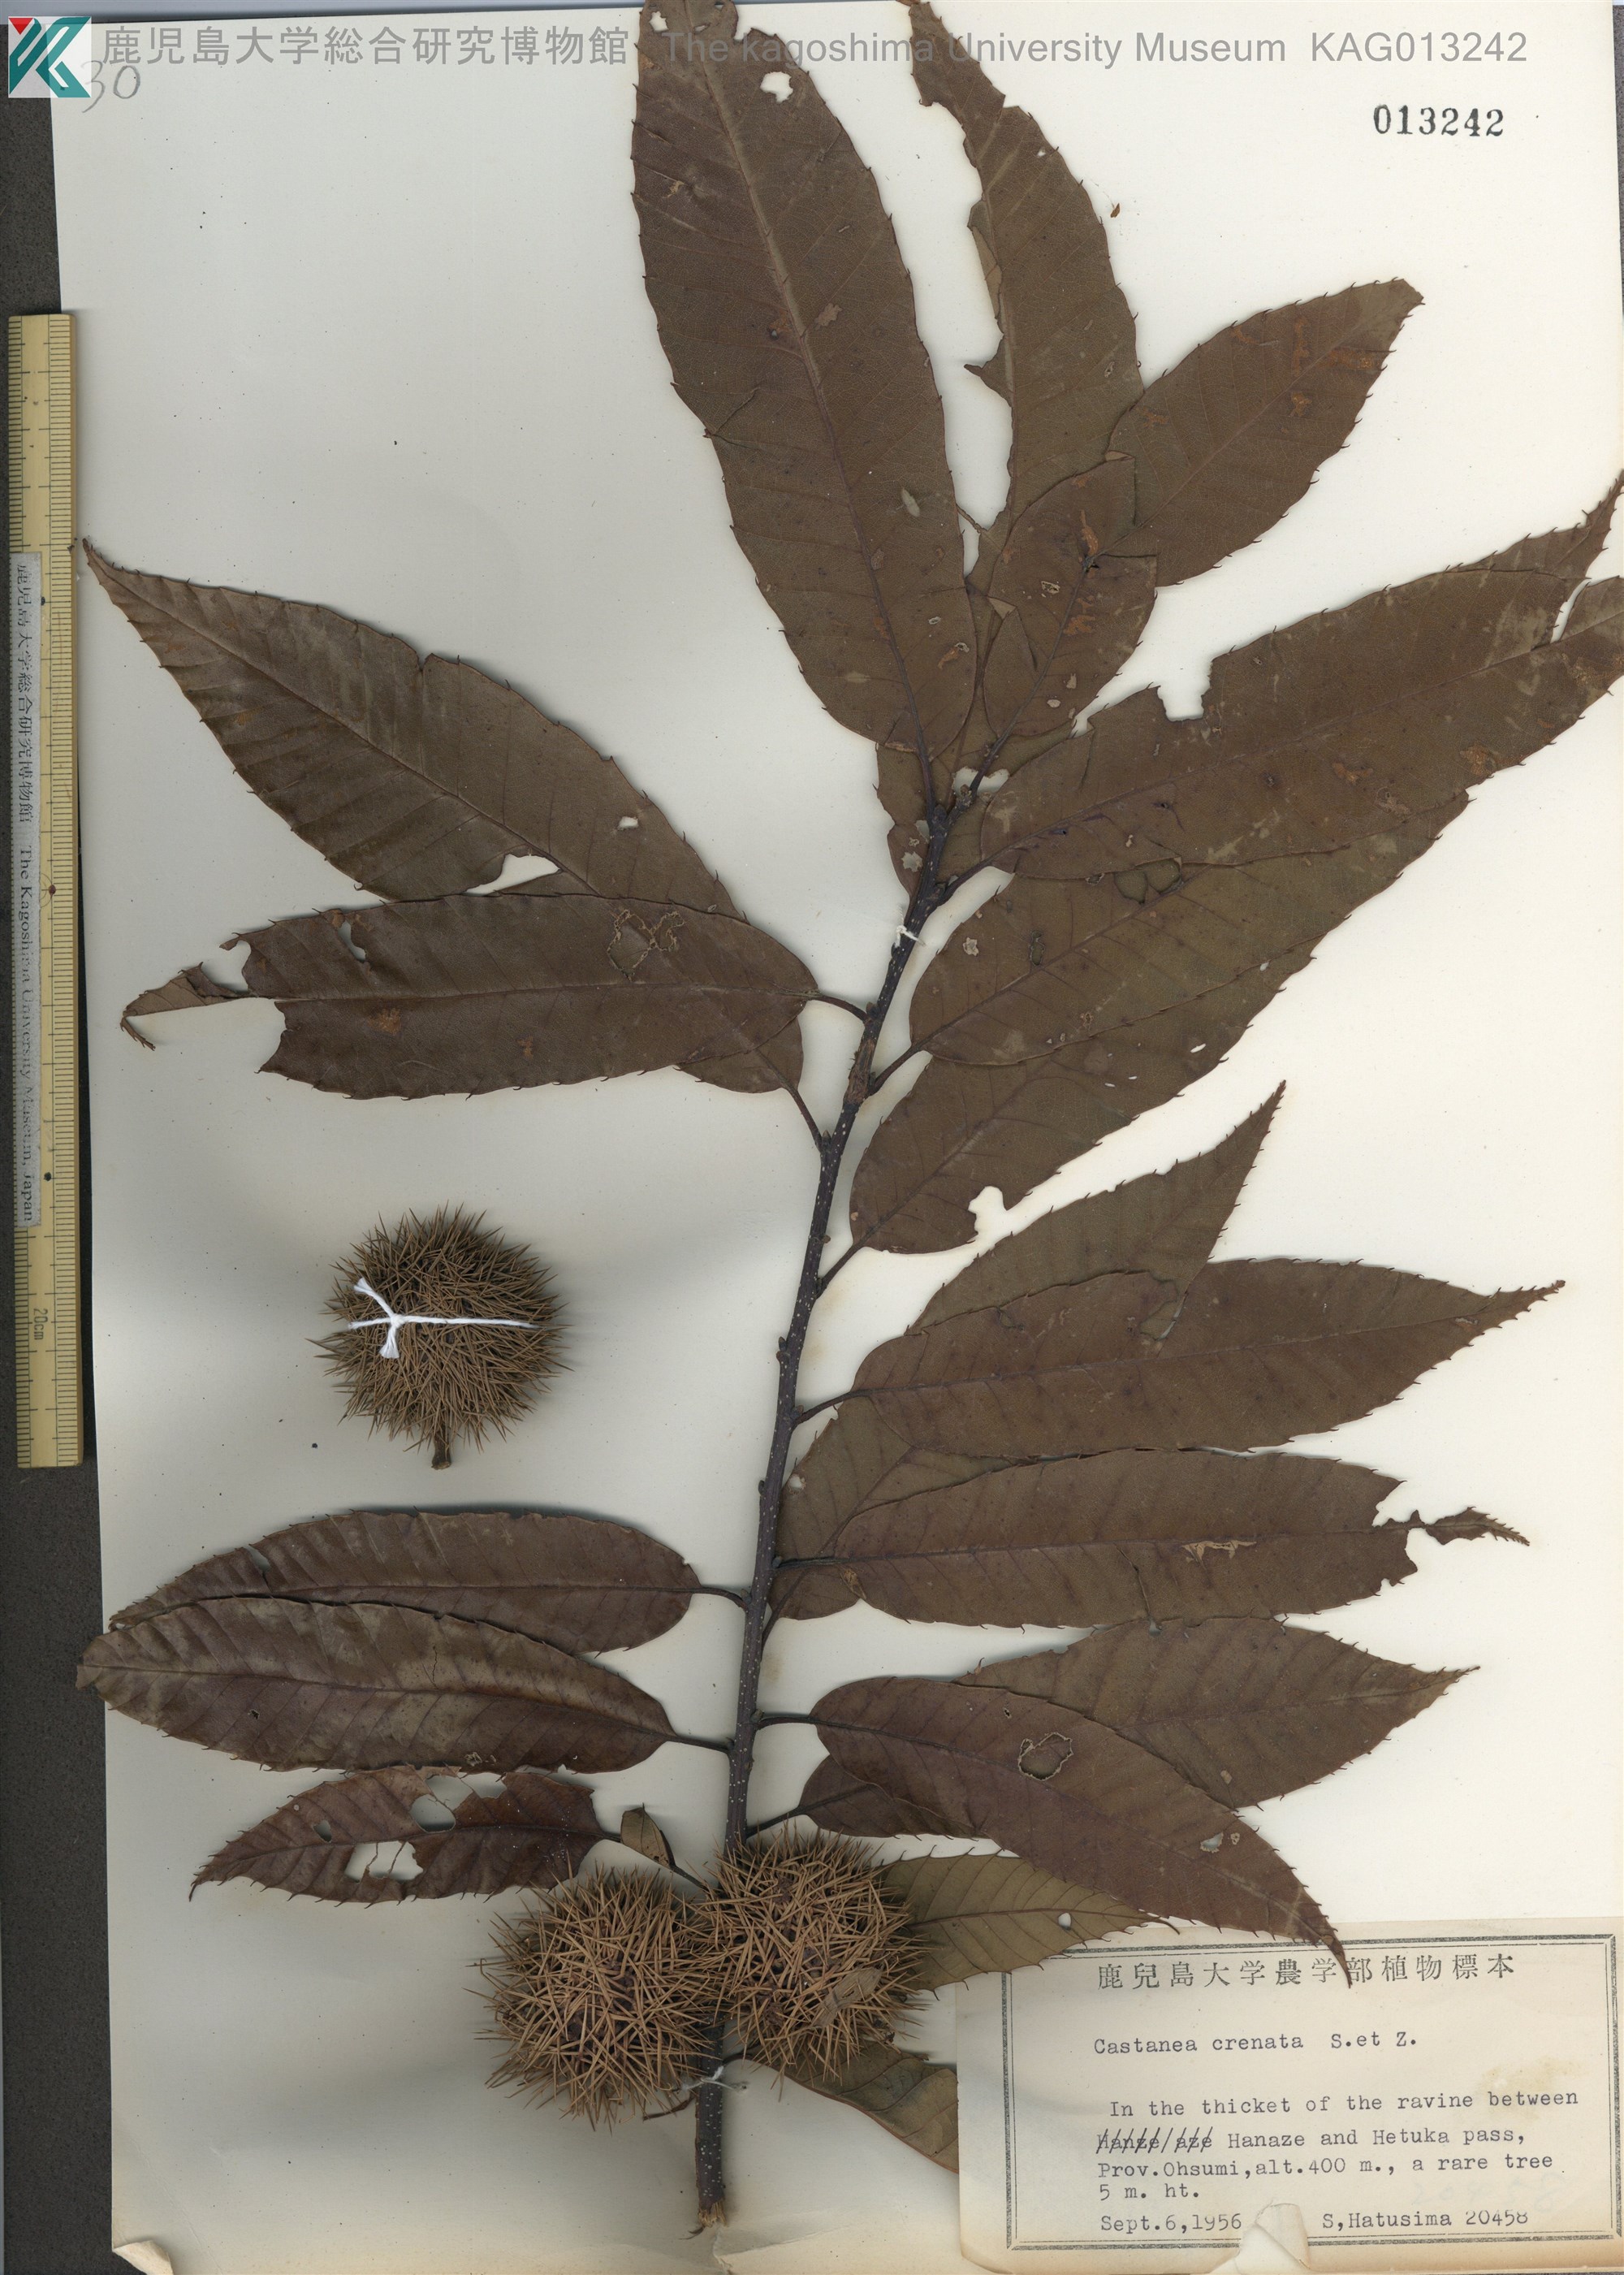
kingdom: Plantae
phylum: Tracheophyta
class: Magnoliopsida
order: Fagales
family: Fagaceae
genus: Castanea
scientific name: Castanea crenata
